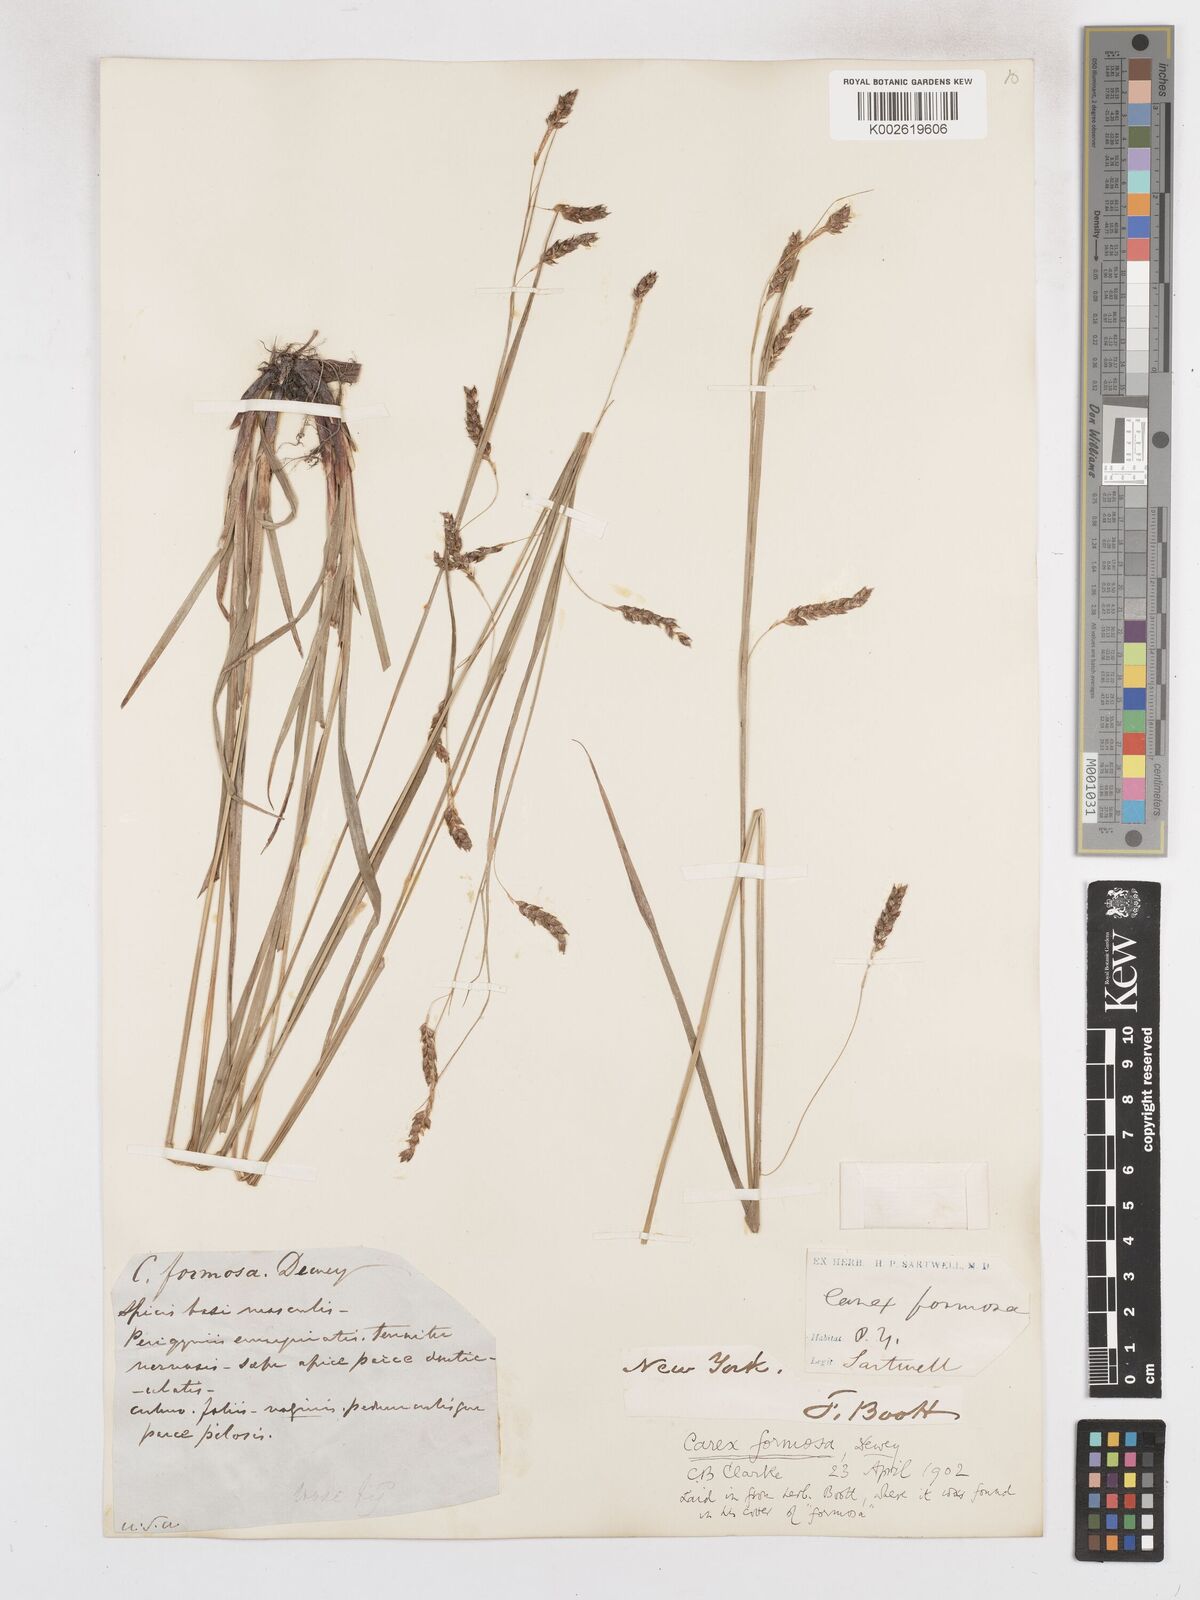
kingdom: Plantae
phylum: Tracheophyta
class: Liliopsida
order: Poales
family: Cyperaceae
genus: Carex
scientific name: Carex formosa
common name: Awnless graceful sedge
